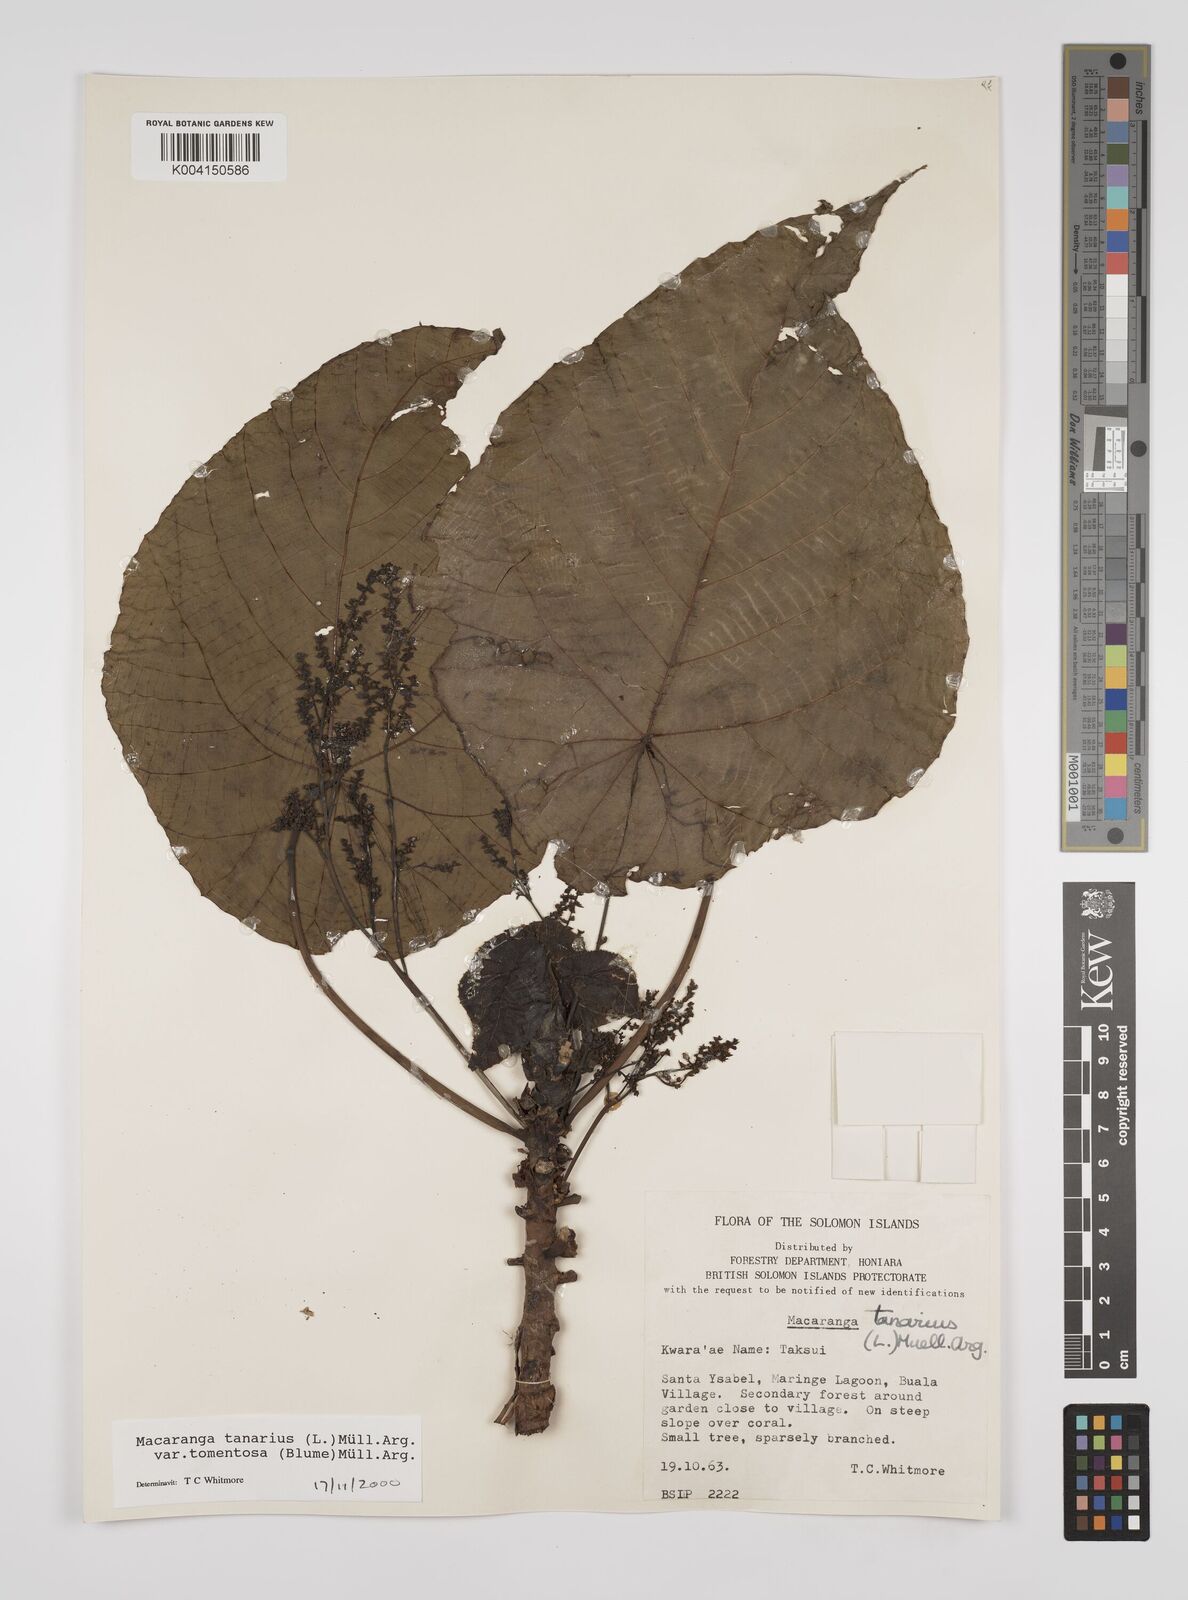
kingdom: Plantae
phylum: Tracheophyta
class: Magnoliopsida
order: Malpighiales
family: Euphorbiaceae
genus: Macaranga
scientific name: Macaranga tanarius
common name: Parasol leaf tree
